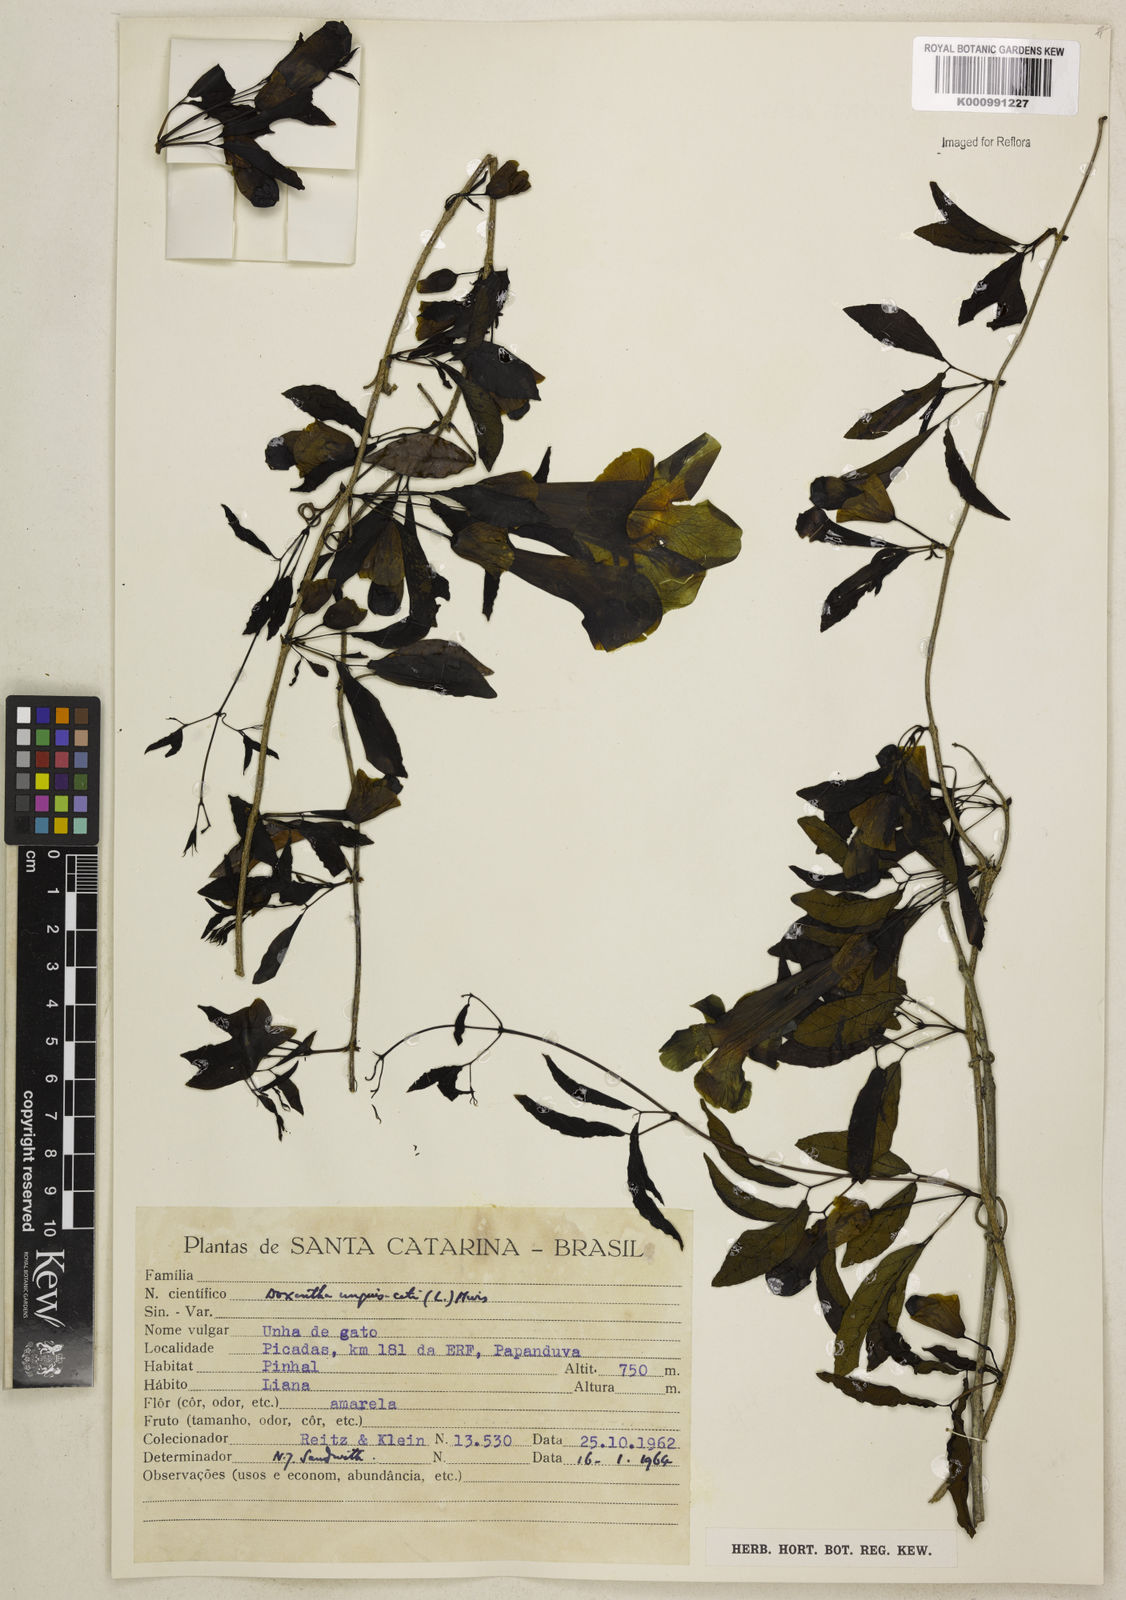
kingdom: Plantae
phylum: Tracheophyta
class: Magnoliopsida
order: Lamiales
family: Bignoniaceae
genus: Dolichandra
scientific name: Dolichandra unguis-cati
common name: Catclaw vine
